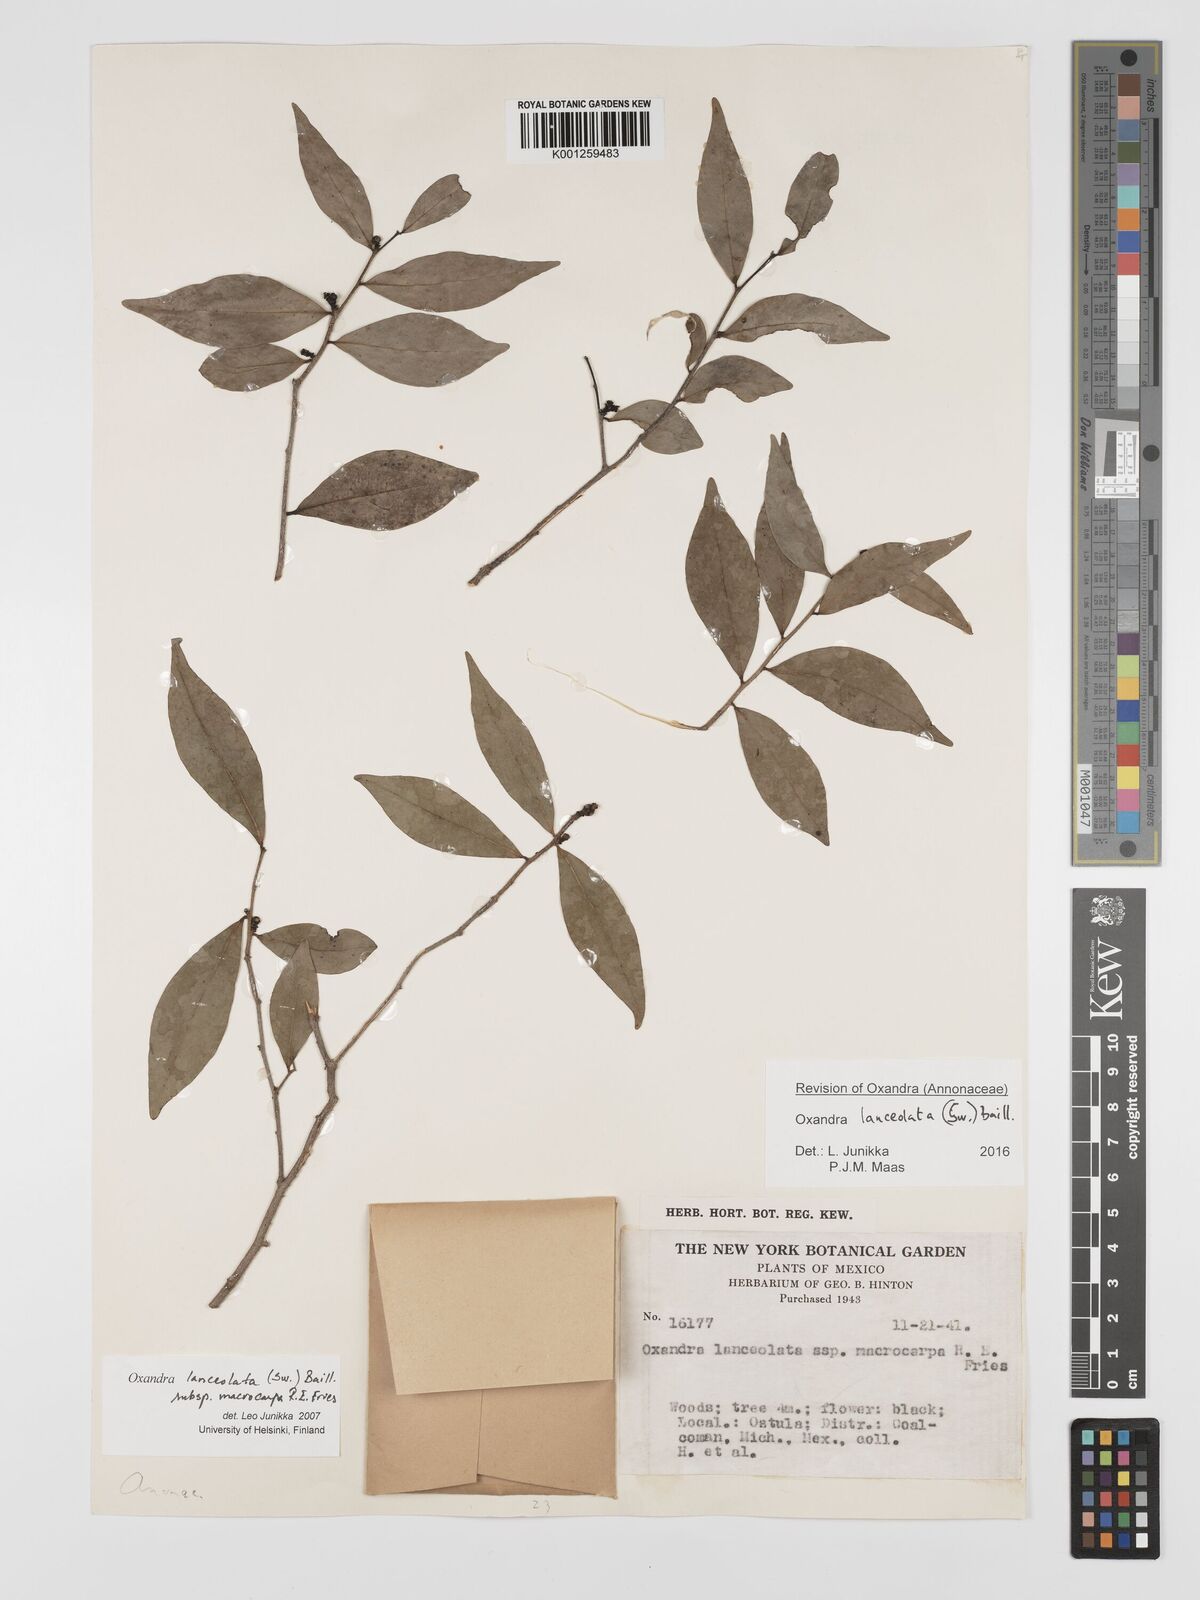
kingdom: Plantae
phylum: Tracheophyta
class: Magnoliopsida
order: Magnoliales
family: Annonaceae
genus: Oxandra
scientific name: Oxandra lanceolata
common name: Lancewood
